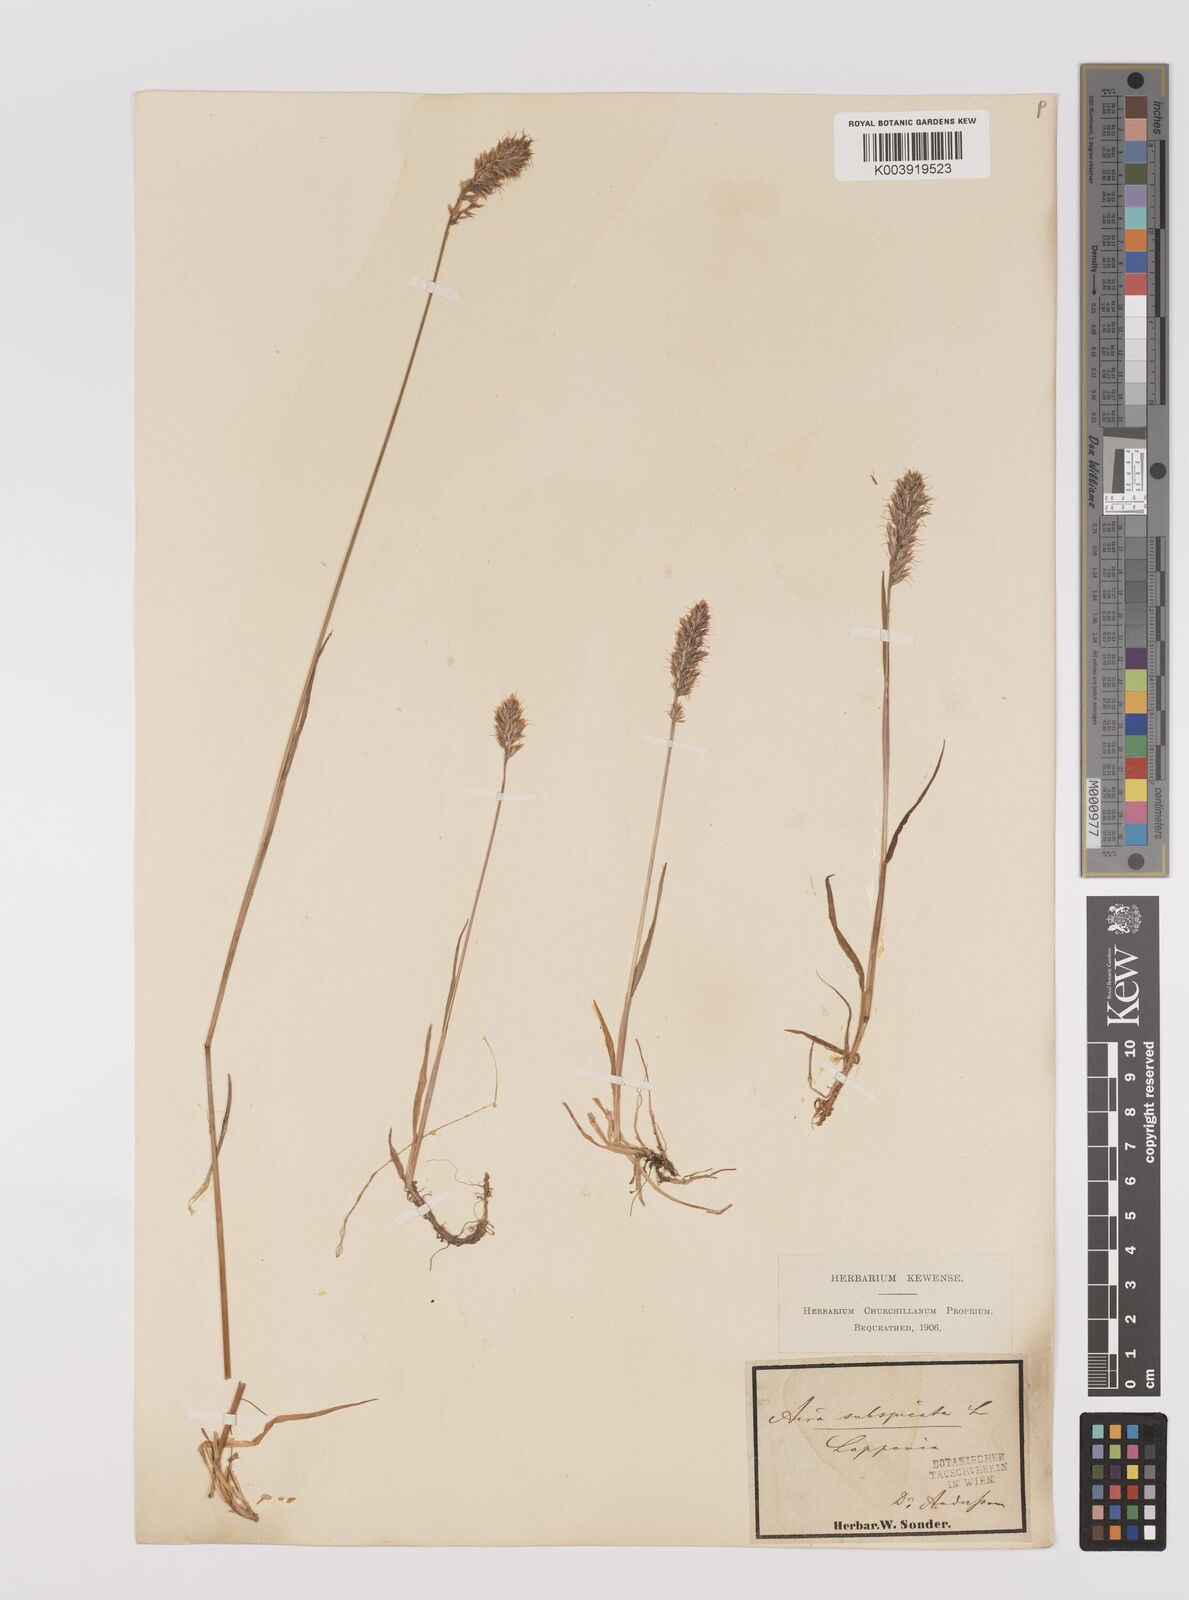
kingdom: Plantae
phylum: Tracheophyta
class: Liliopsida
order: Poales
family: Poaceae
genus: Koeleria
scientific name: Koeleria spicata
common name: Mountain trisetum
